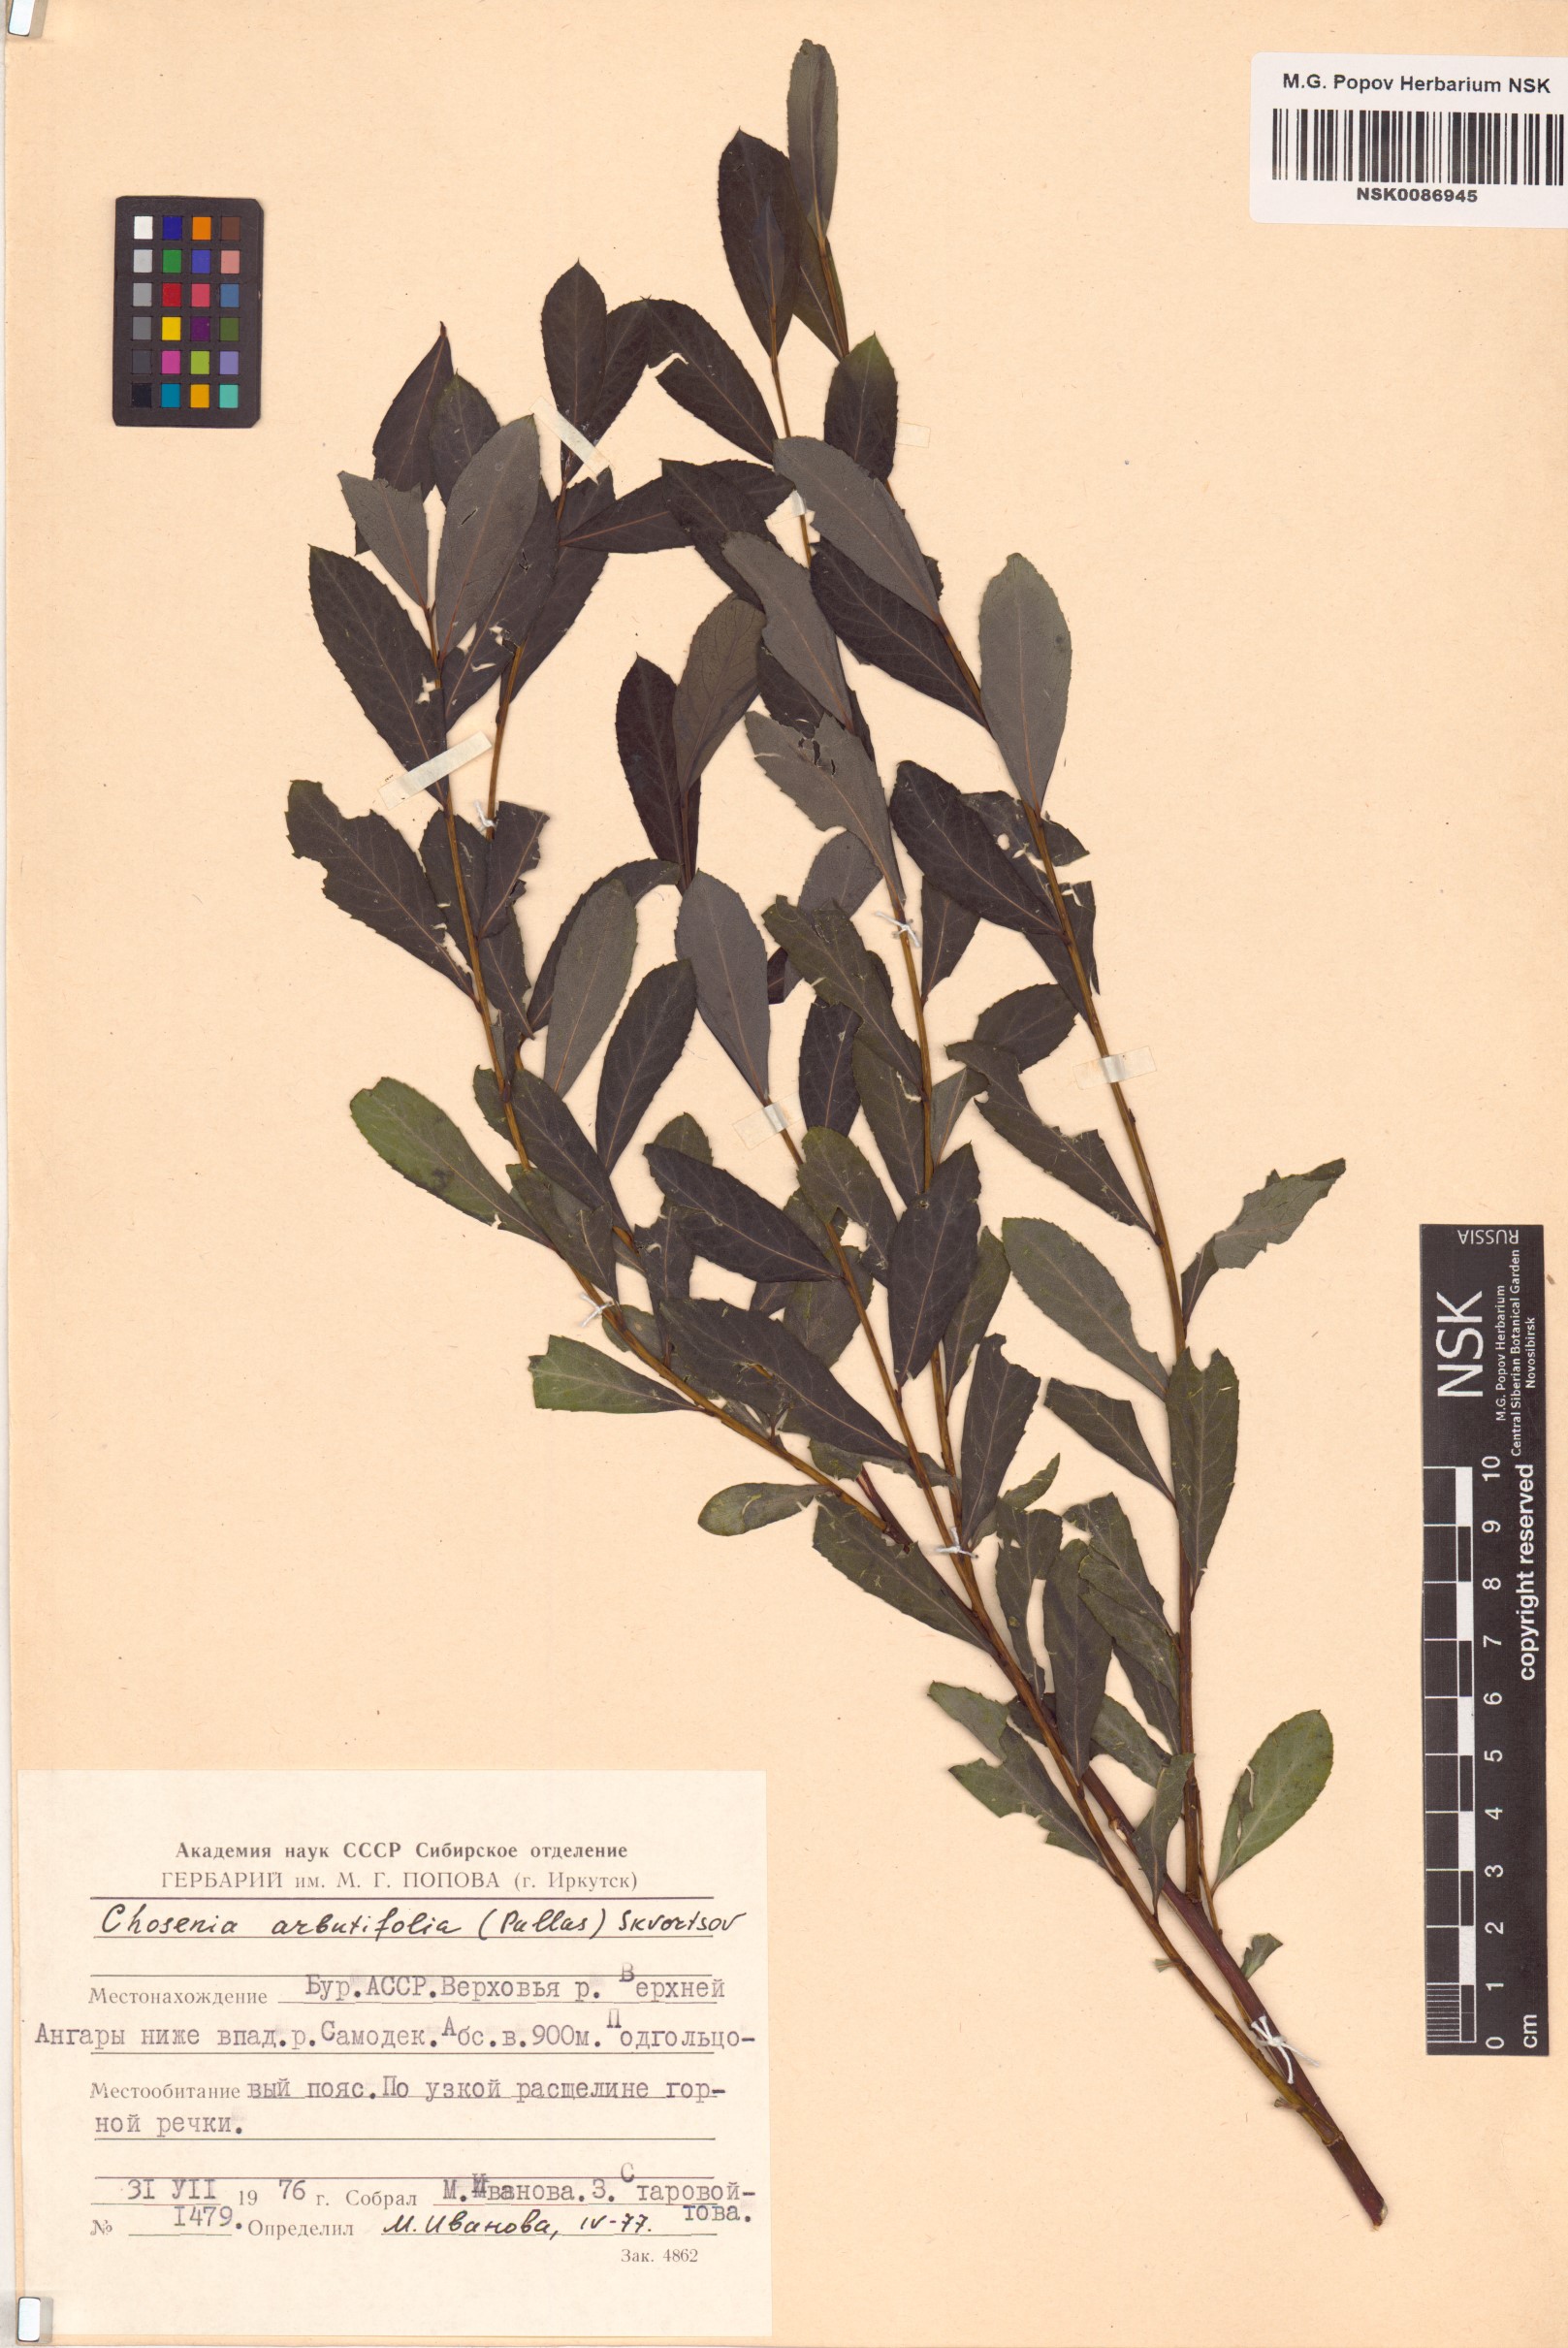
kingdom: Plantae
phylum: Tracheophyta
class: Magnoliopsida
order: Malpighiales
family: Salicaceae
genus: Chosenia
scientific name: Chosenia arbutifolia
